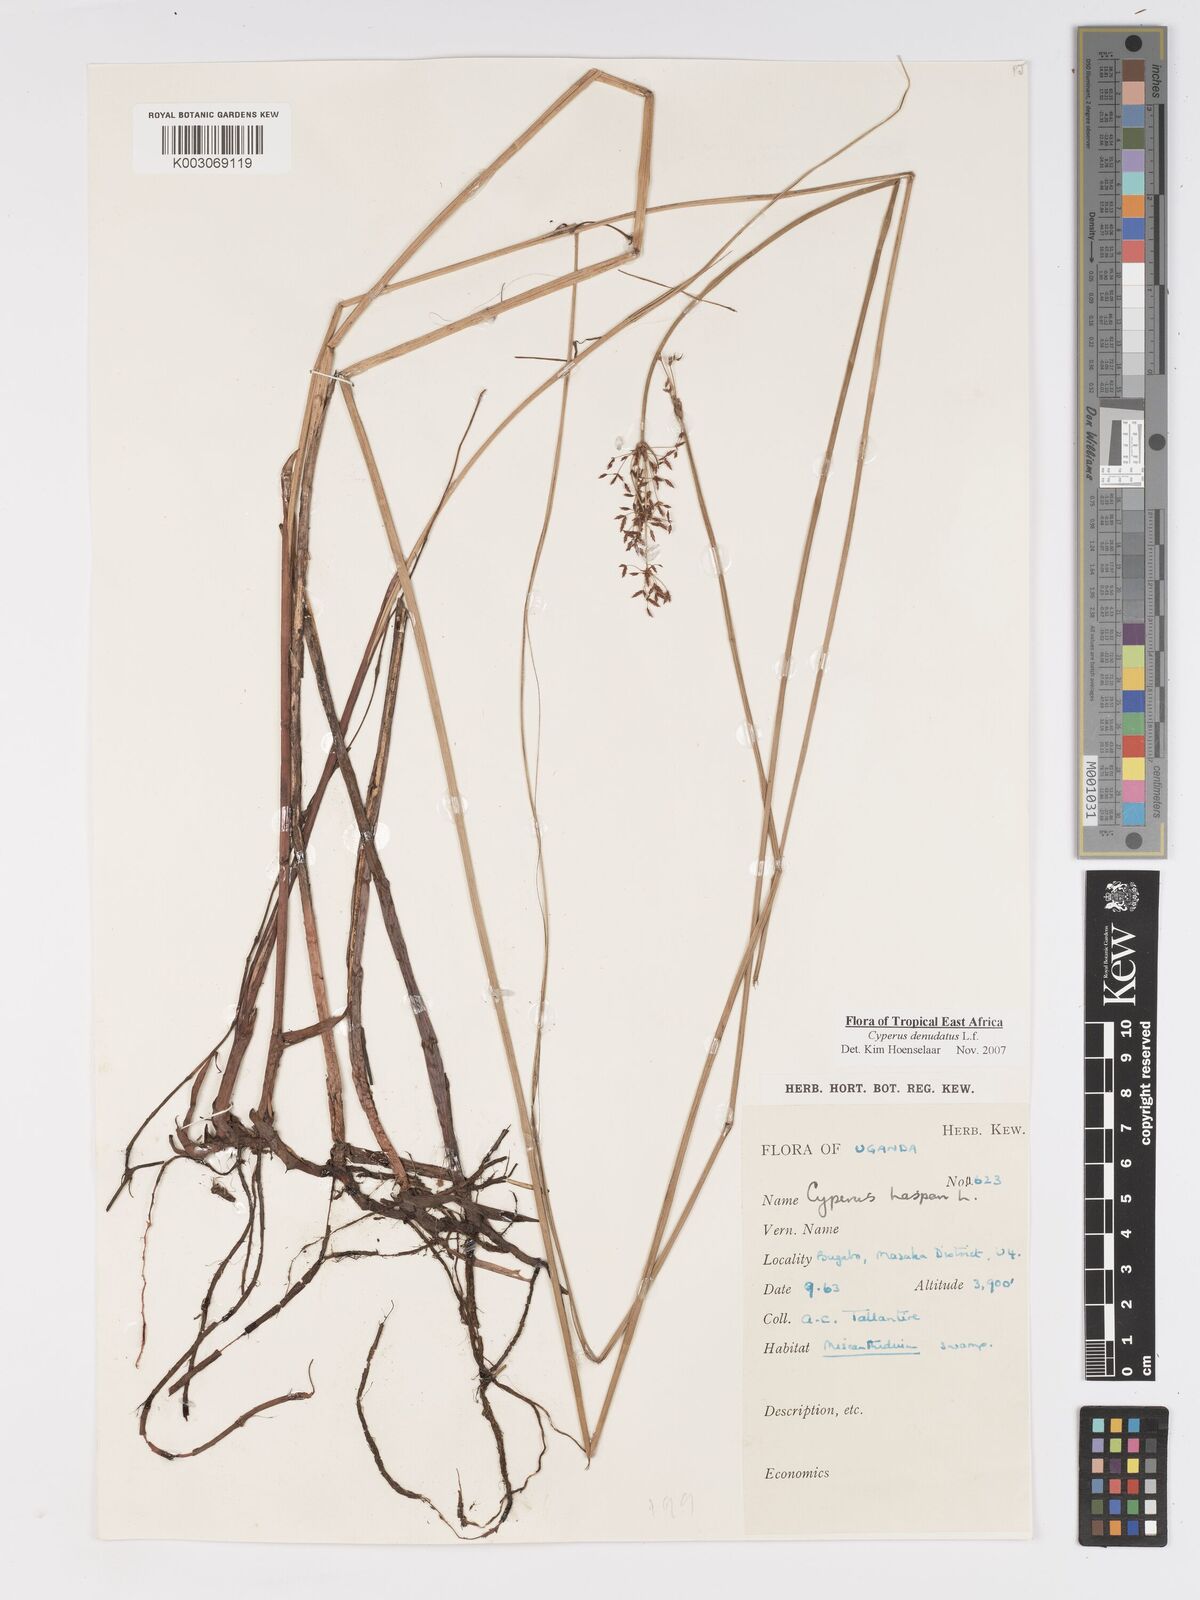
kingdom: Plantae
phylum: Tracheophyta
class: Liliopsida
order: Poales
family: Cyperaceae
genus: Cyperus
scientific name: Cyperus platycaulis
